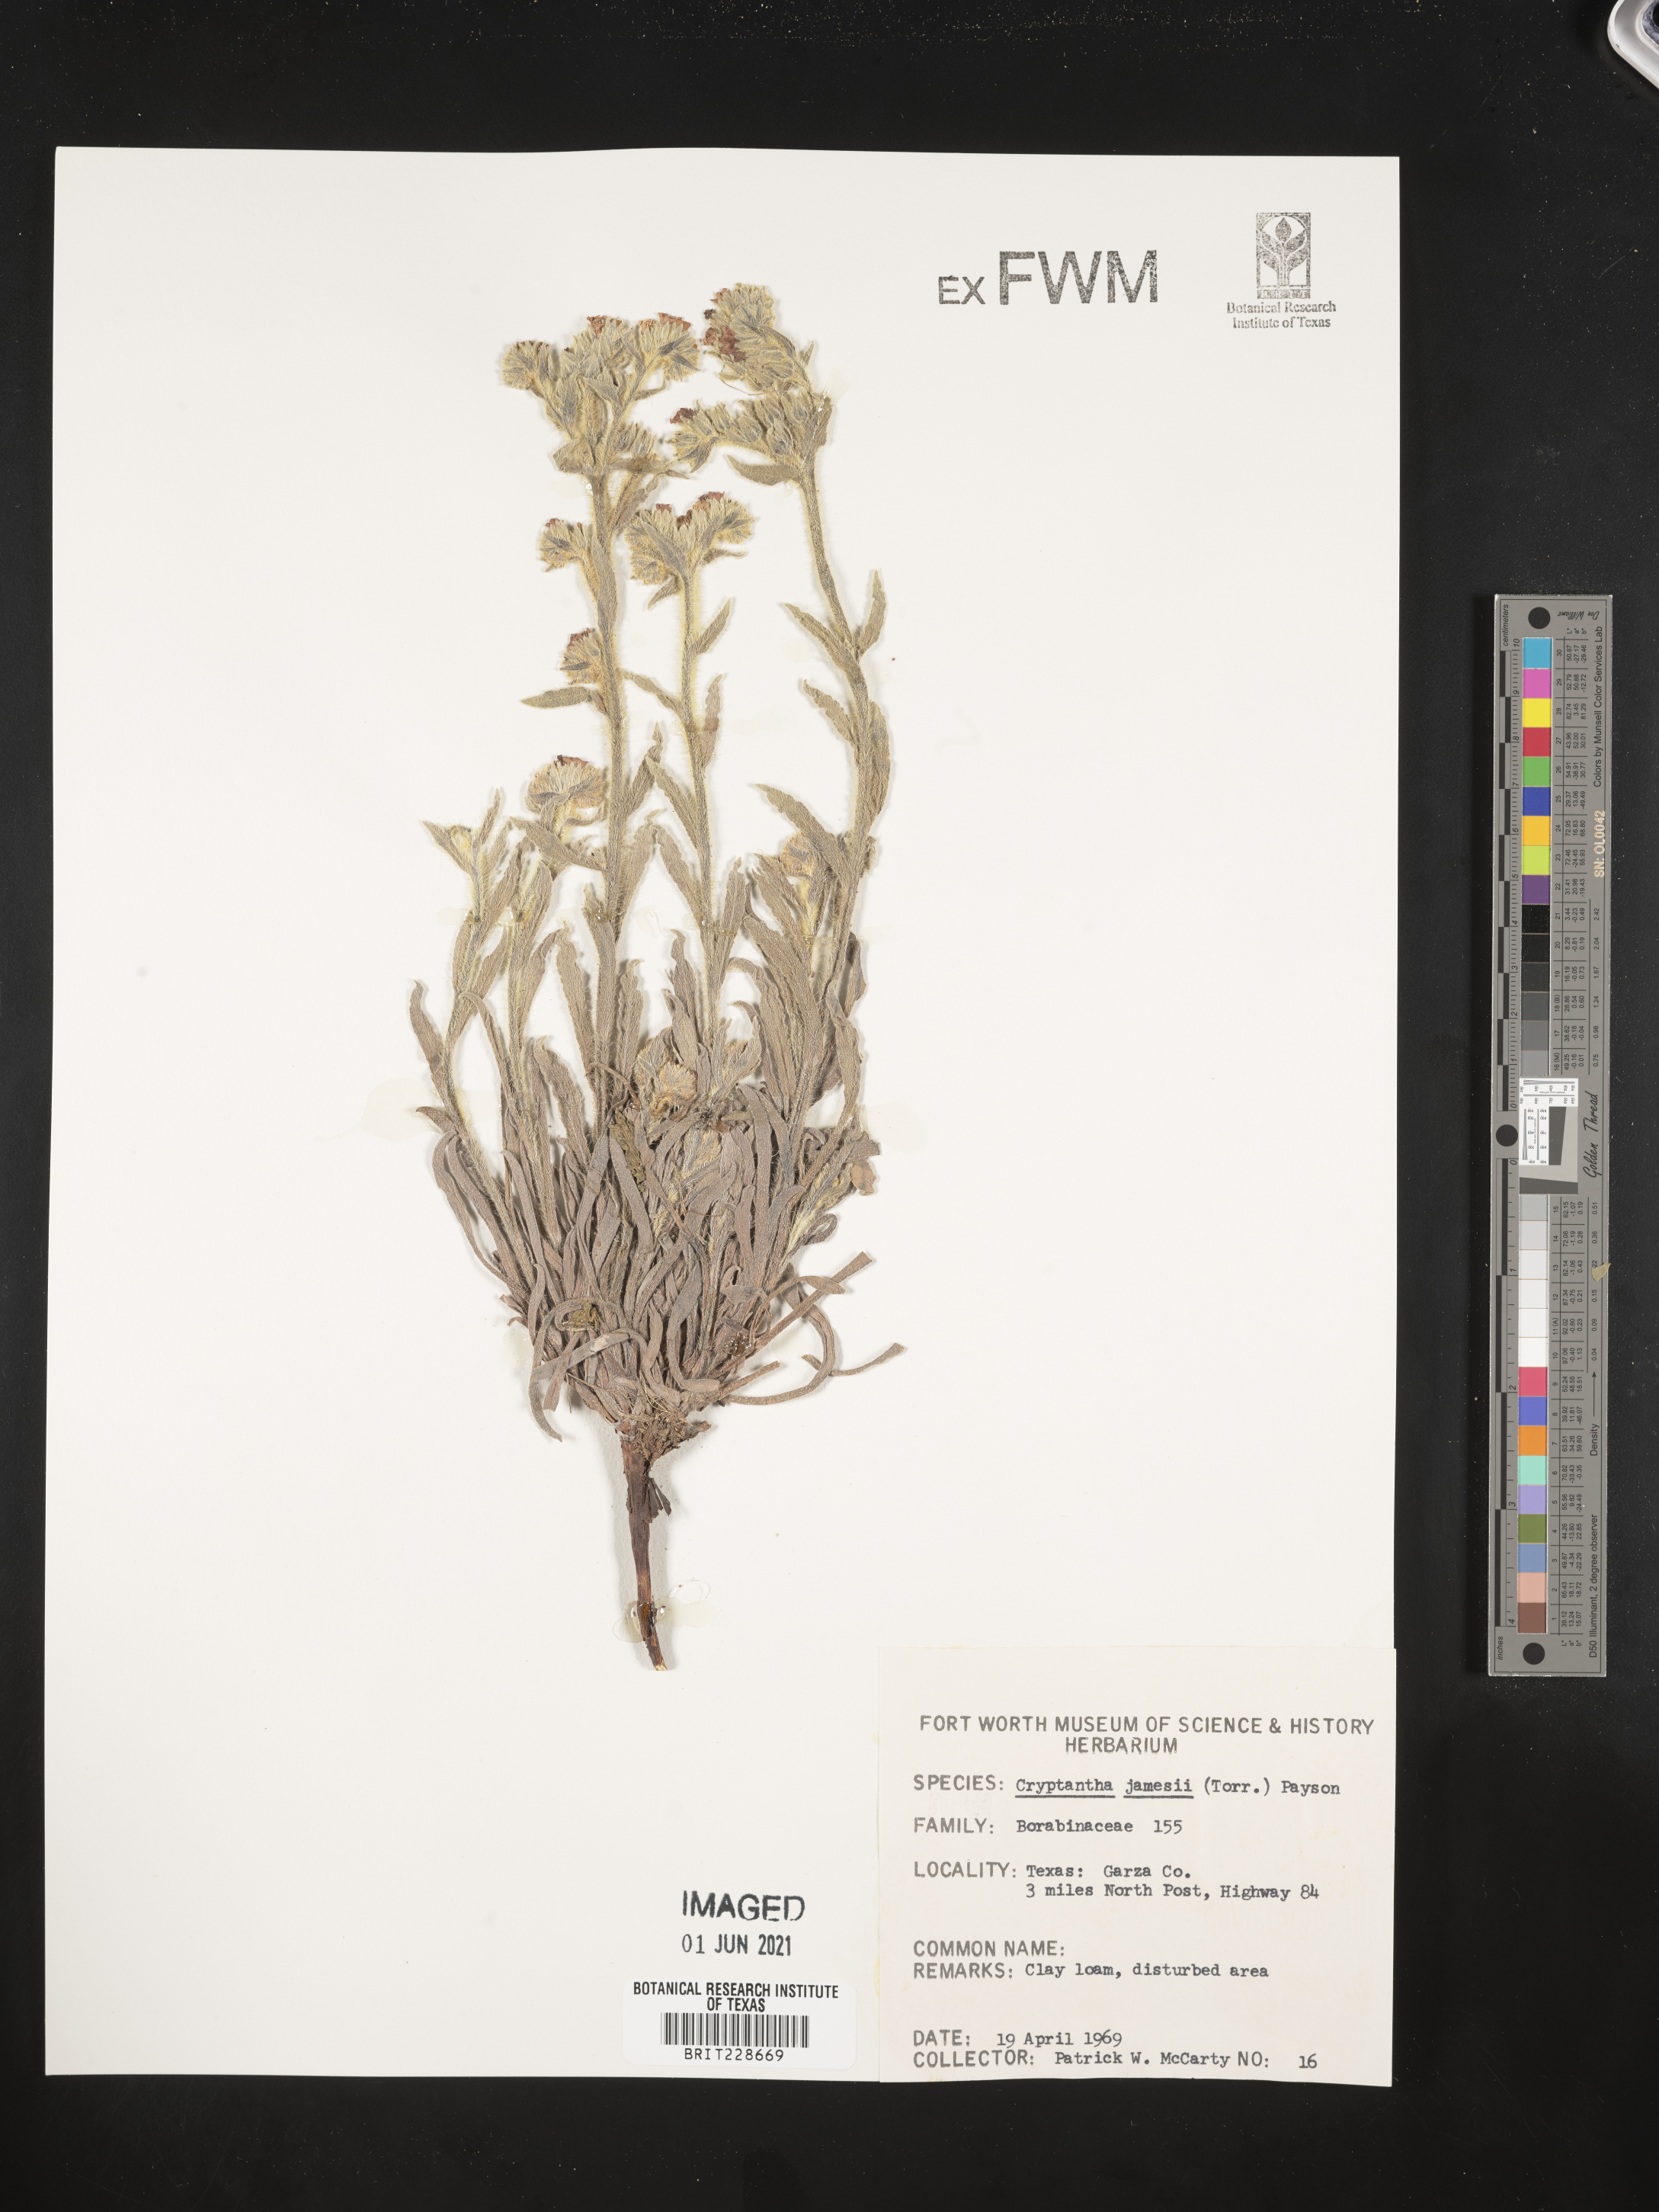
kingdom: Plantae
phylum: Tracheophyta
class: Magnoliopsida
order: Boraginales
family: Boraginaceae
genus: Oreocarya
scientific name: Oreocarya suffruticosa
